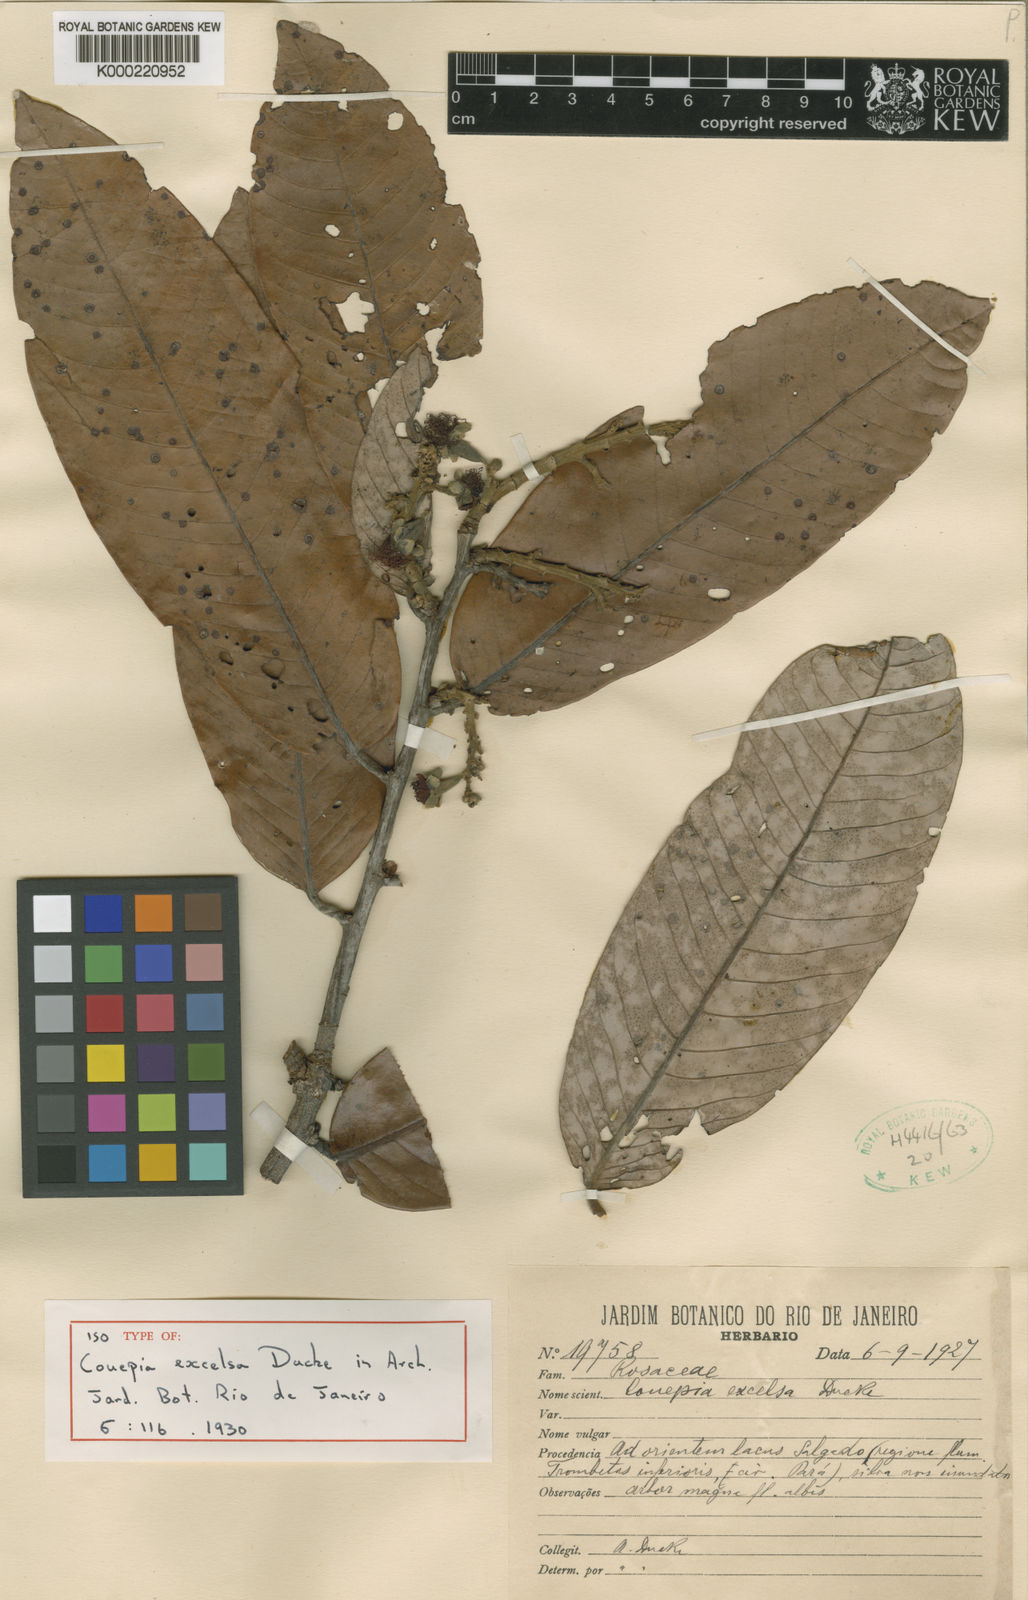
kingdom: Plantae
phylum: Tracheophyta
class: Magnoliopsida
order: Malpighiales
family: Chrysobalanaceae
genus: Couepia
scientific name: Couepia excelsa
